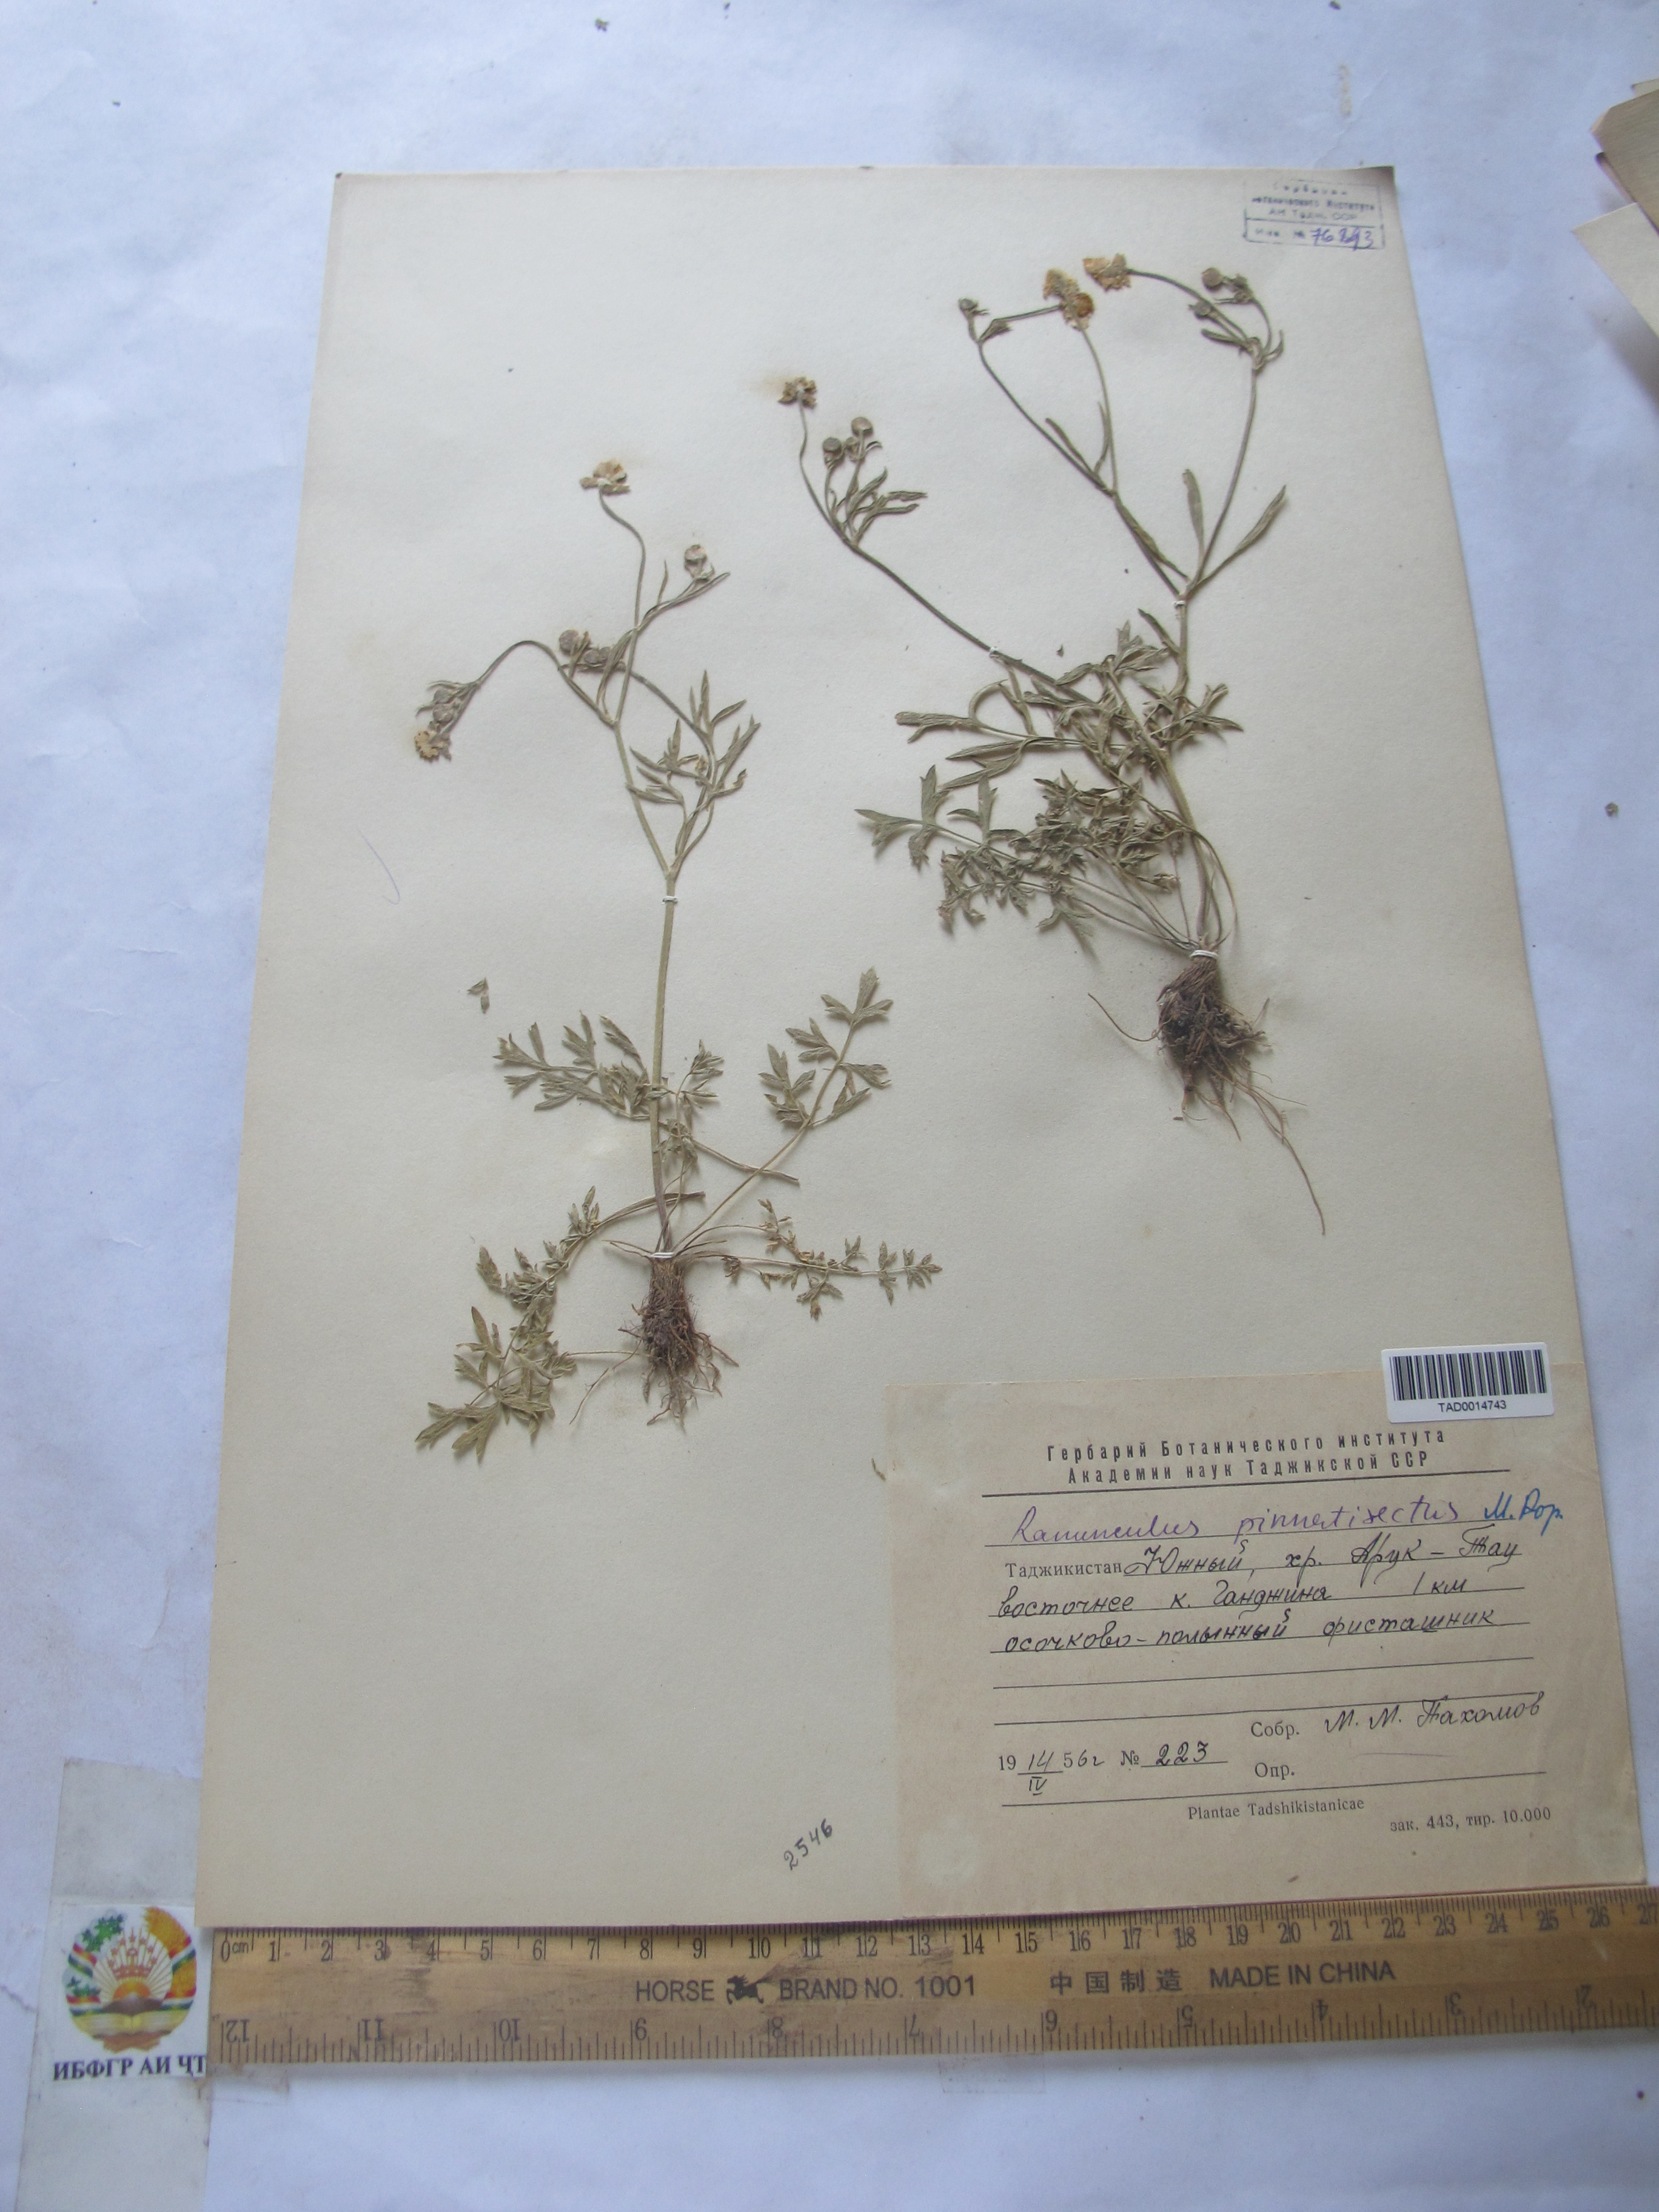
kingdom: Plantae
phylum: Tracheophyta
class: Magnoliopsida
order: Ranunculales
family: Ranunculaceae
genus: Ranunculus
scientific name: Ranunculus pinnatisectus
